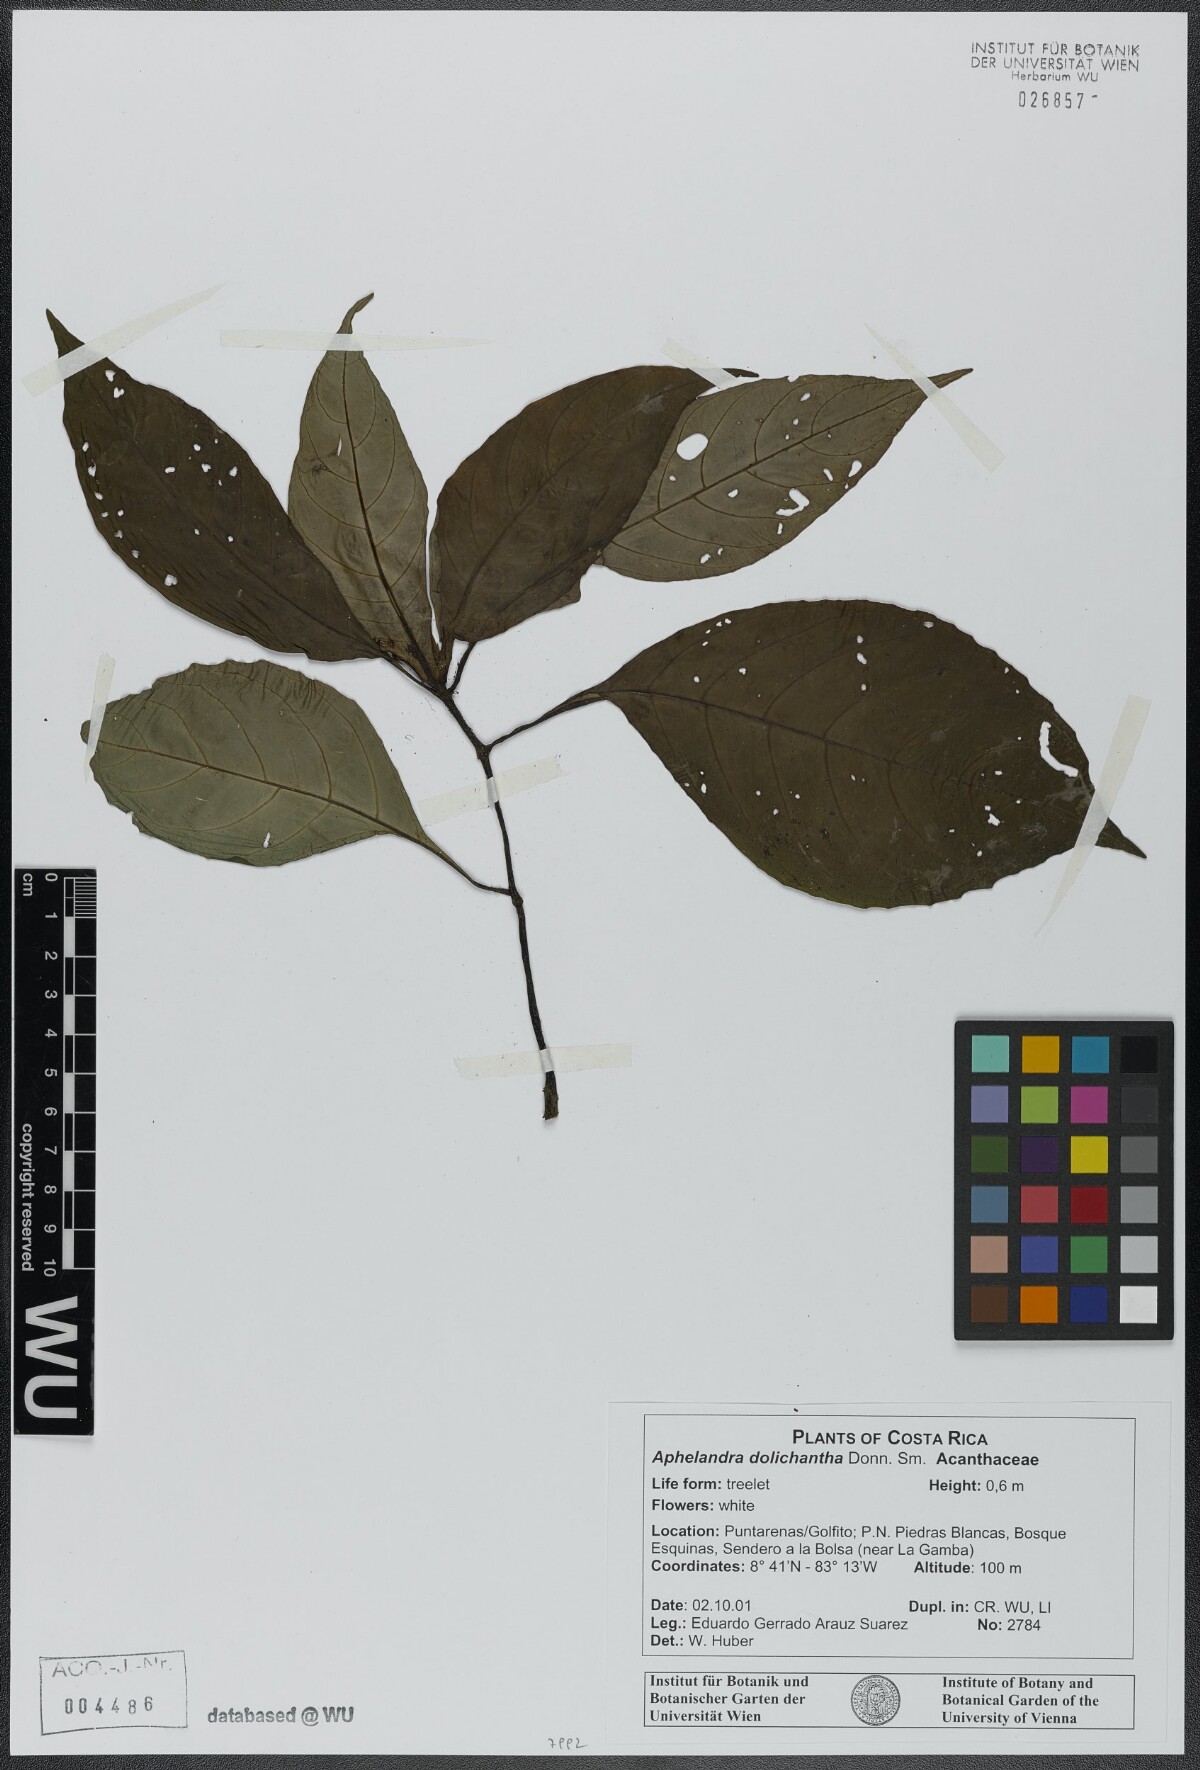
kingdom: Plantae
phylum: Tracheophyta
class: Magnoliopsida
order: Lamiales
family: Acanthaceae
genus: Aphelandra
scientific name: Aphelandra dolichantha
